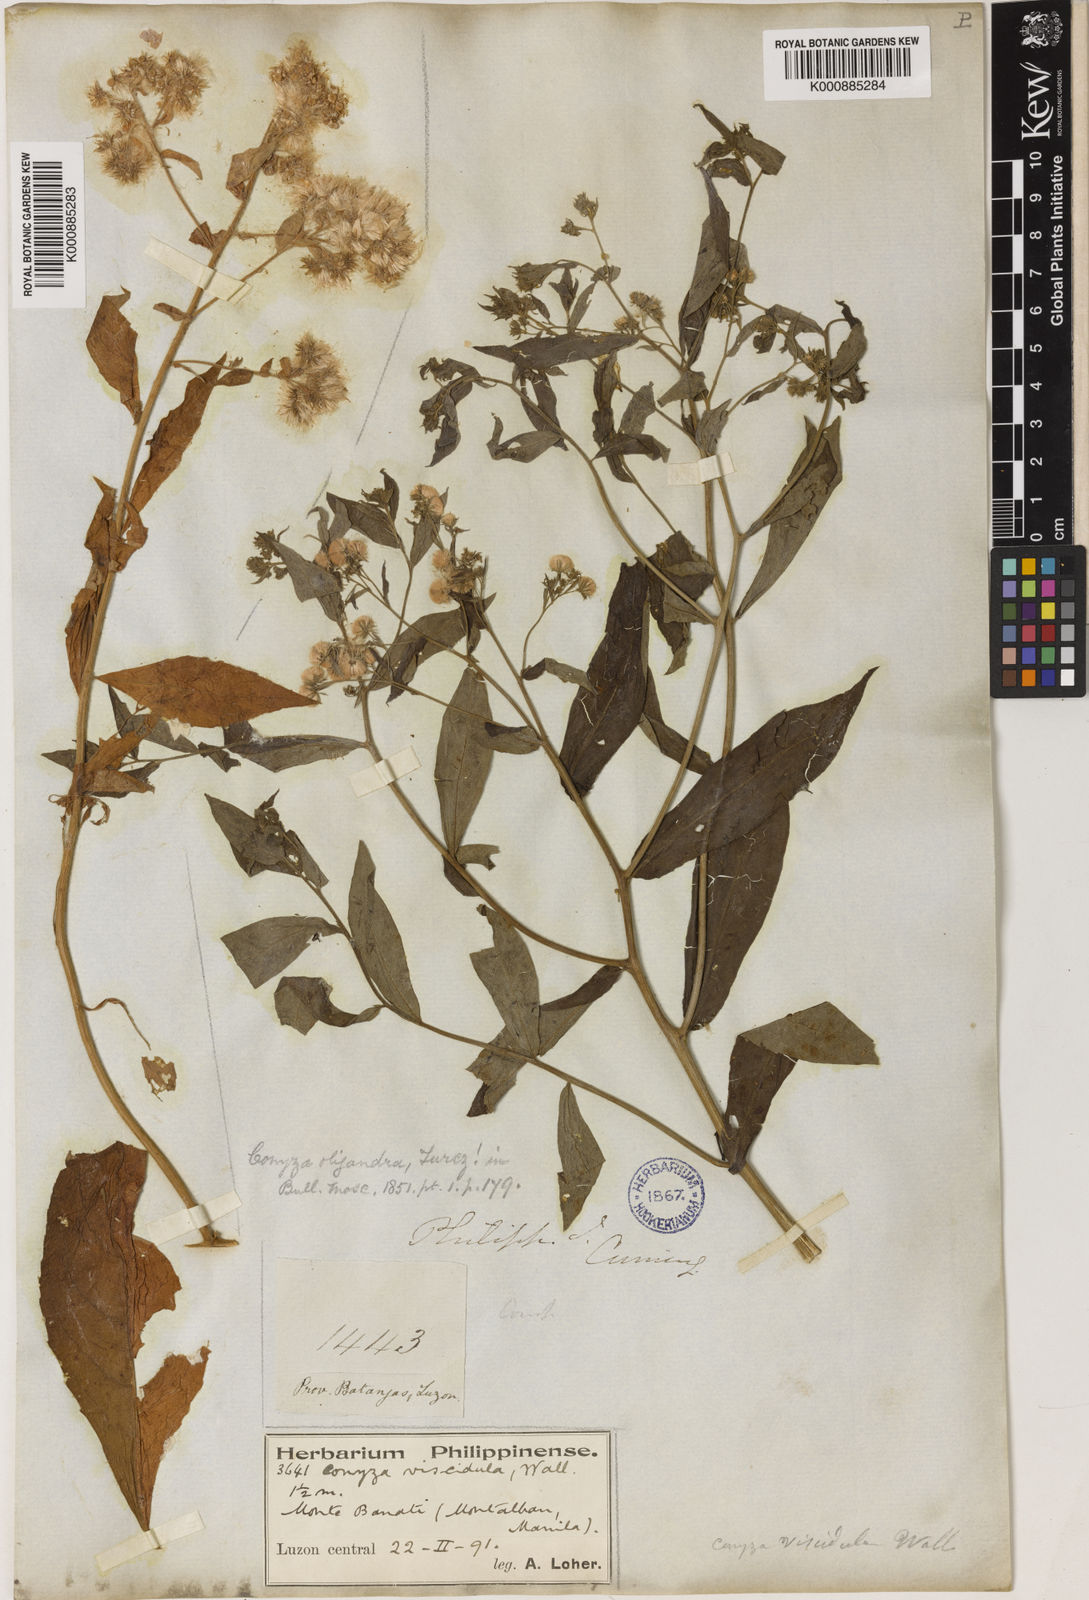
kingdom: Plantae
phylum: Tracheophyta
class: Magnoliopsida
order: Asterales
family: Asteraceae
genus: Eschenbachia
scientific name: Eschenbachia leucantha
